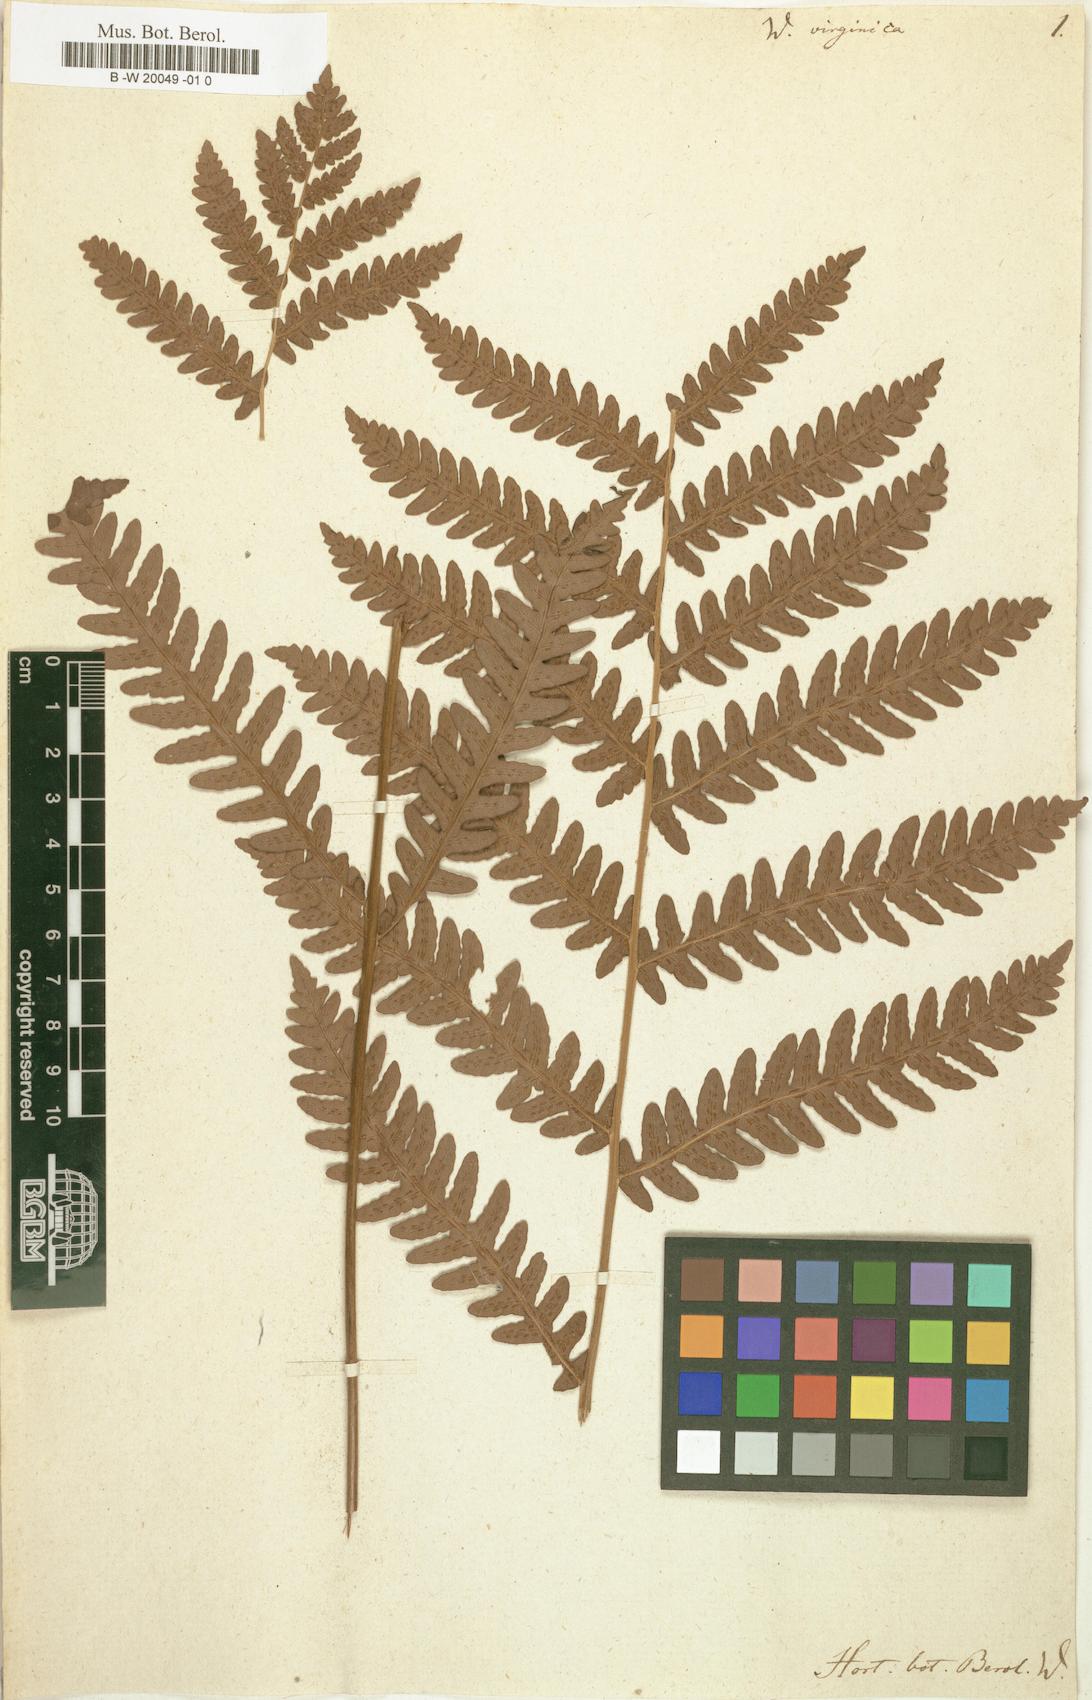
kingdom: Plantae
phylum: Tracheophyta
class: Polypodiopsida
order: Polypodiales
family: Blechnaceae
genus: Anchistea
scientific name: Anchistea virginica
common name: Virginia chain fern
